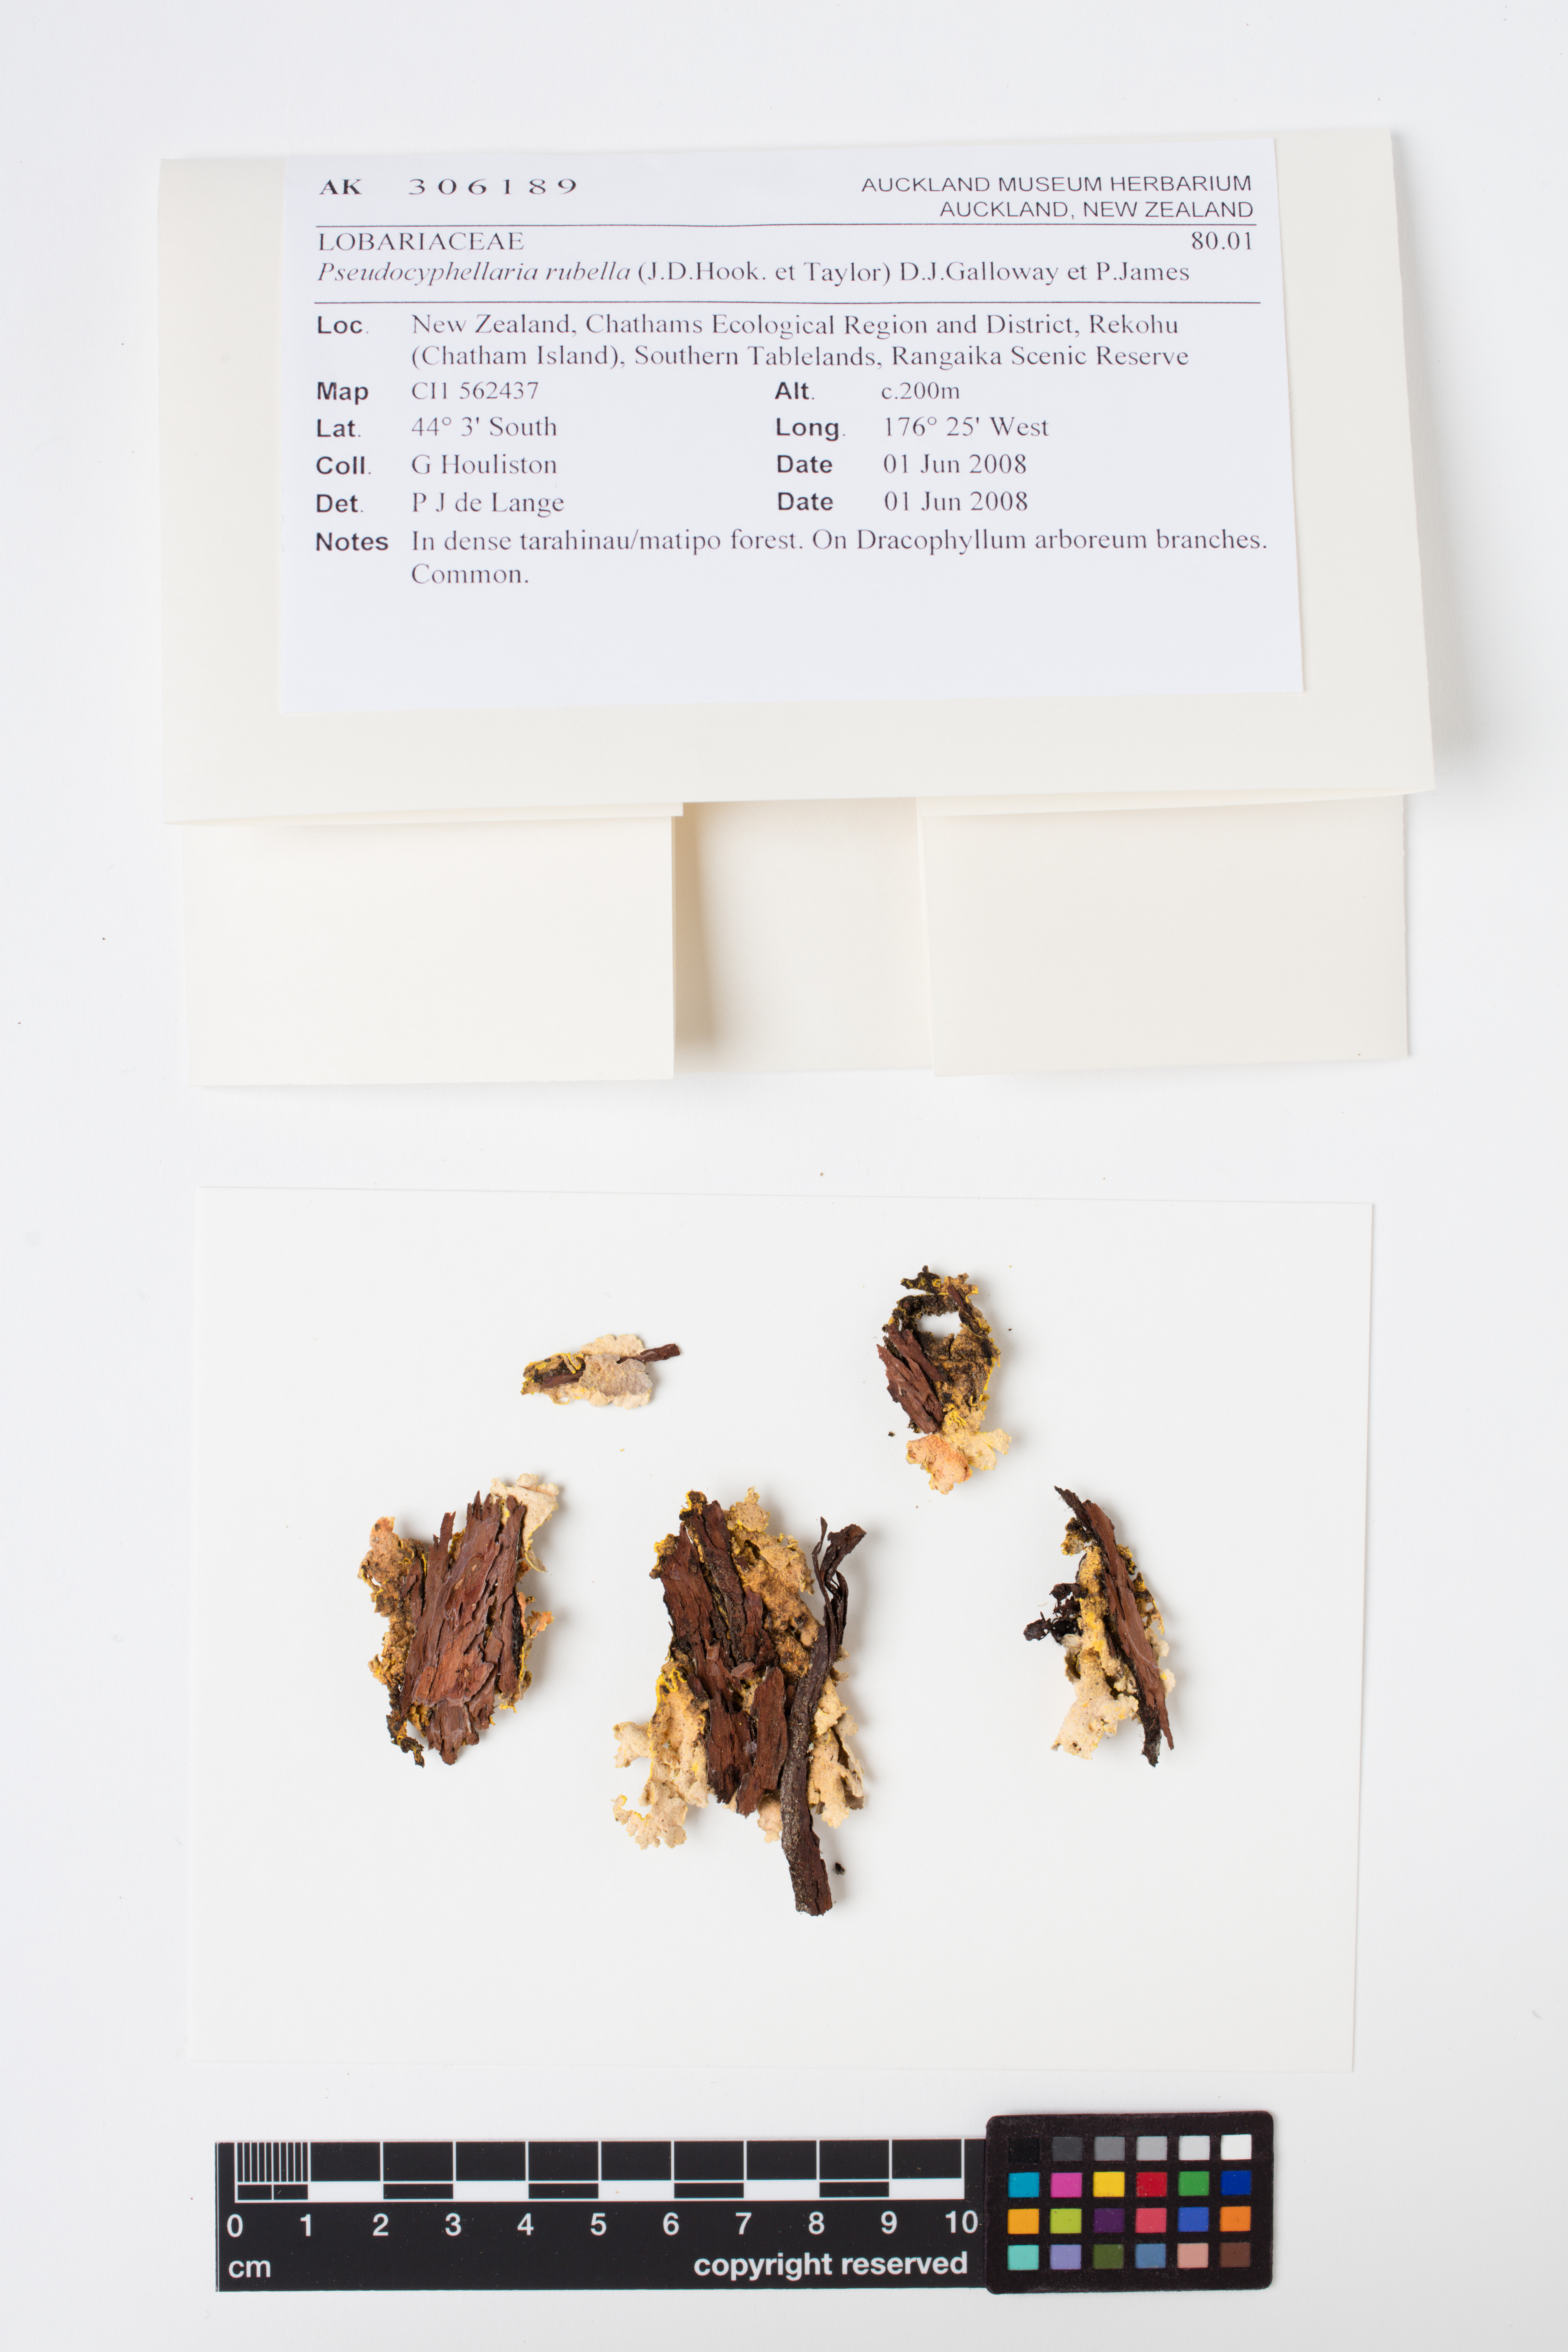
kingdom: Fungi
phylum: Ascomycota
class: Lecanoromycetes
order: Peltigerales
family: Lobariaceae
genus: Pseudocyphellaria
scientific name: Pseudocyphellaria rubella
